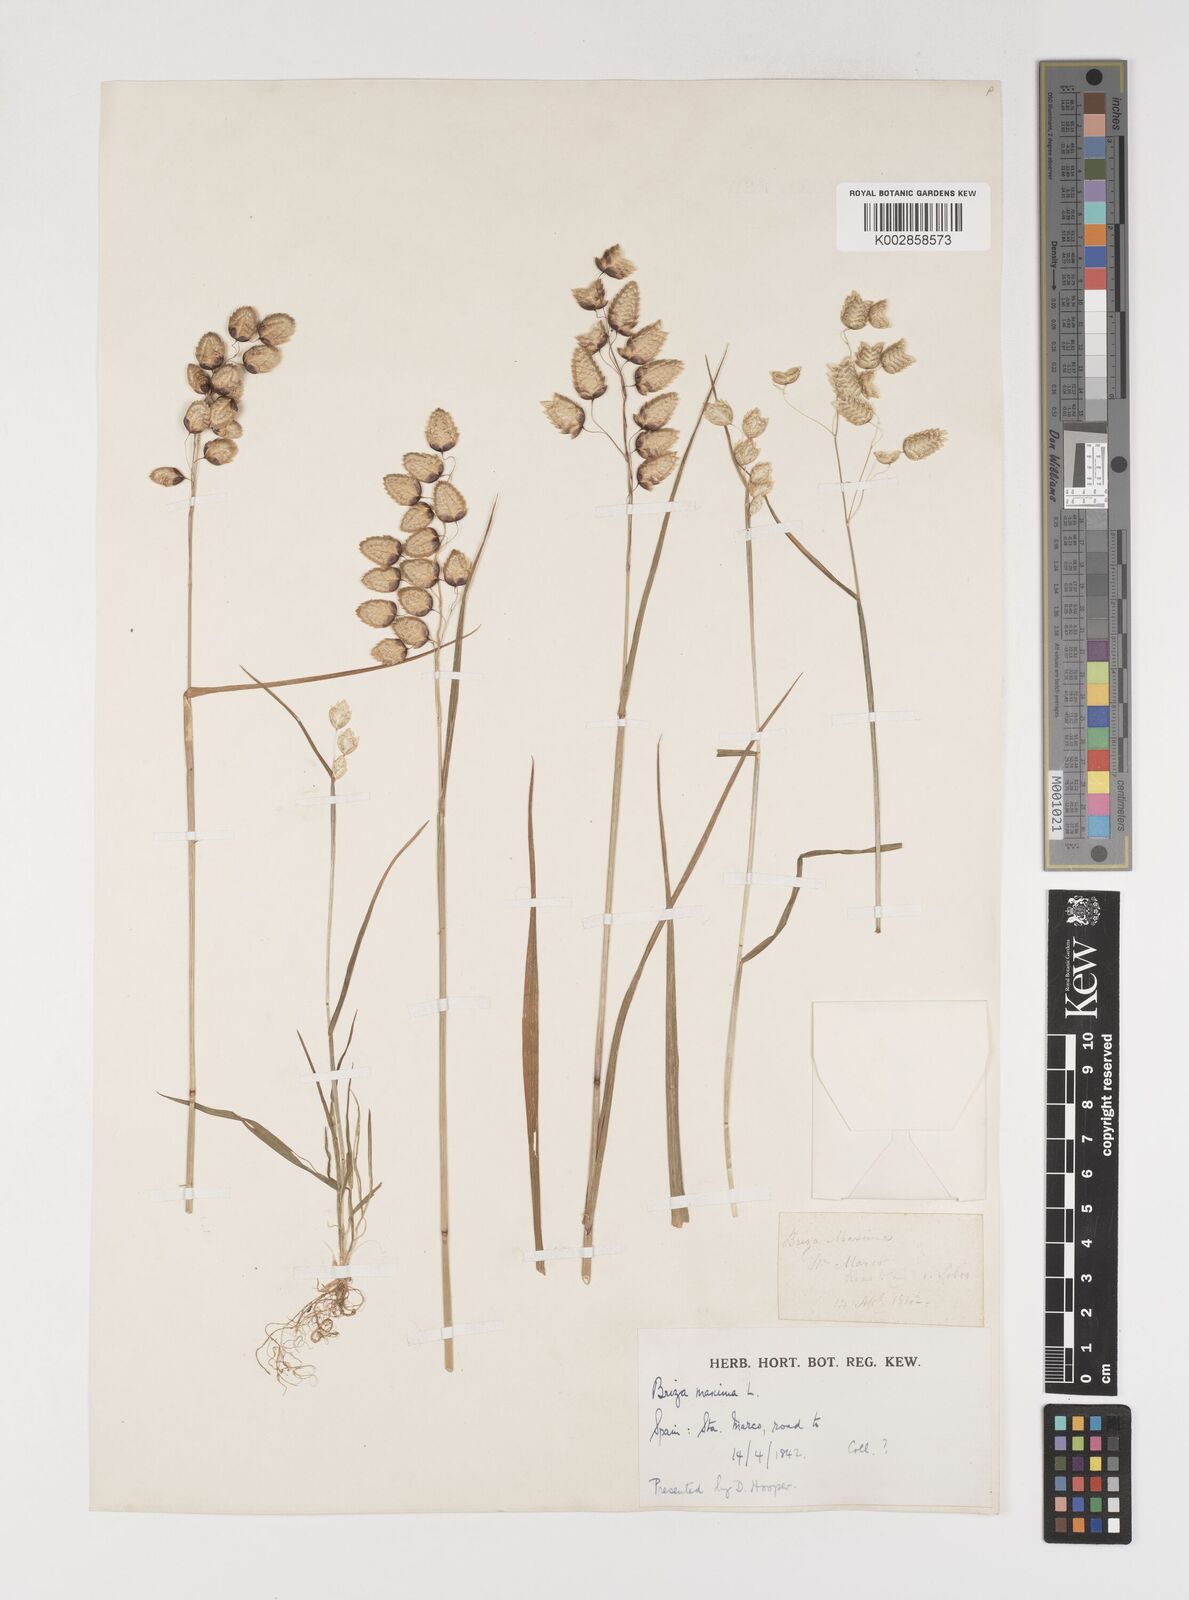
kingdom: Plantae
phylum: Tracheophyta
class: Liliopsida
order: Poales
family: Poaceae
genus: Briza
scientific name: Briza maxima
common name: Big quakinggrass
